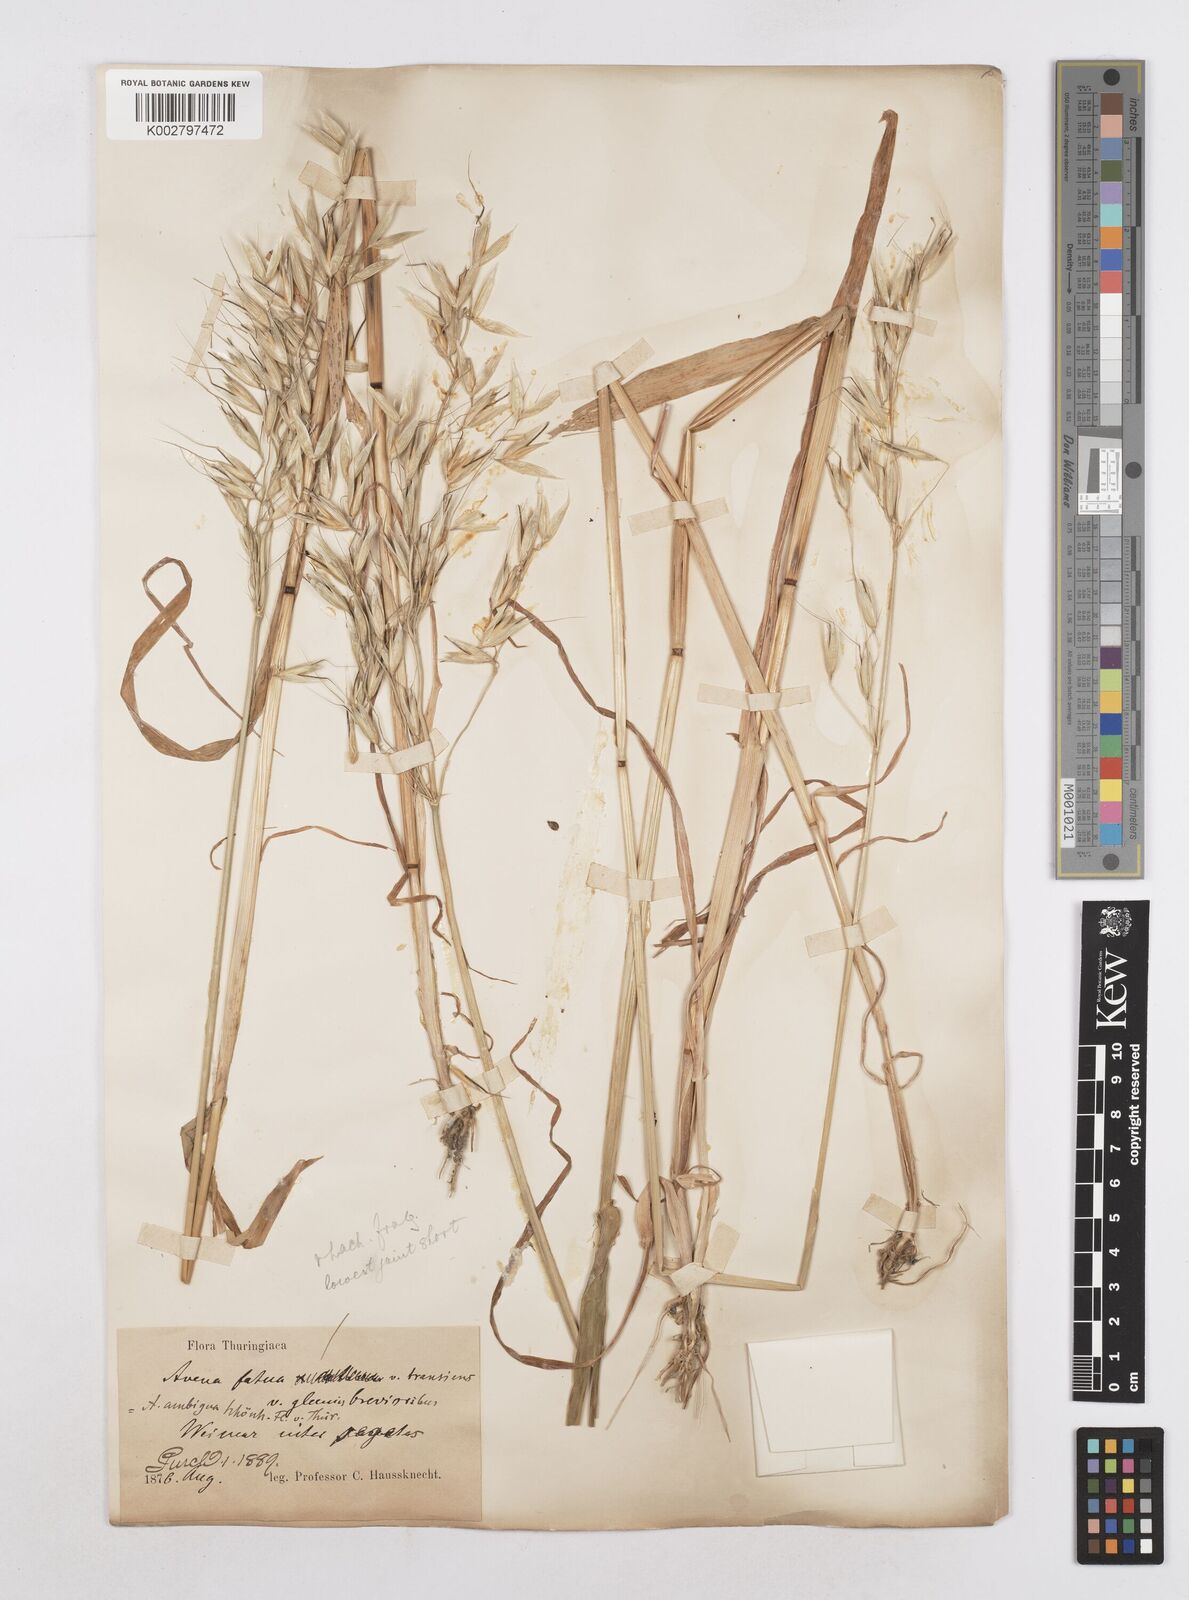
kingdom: Plantae
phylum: Tracheophyta
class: Liliopsida
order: Poales
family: Poaceae
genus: Avena
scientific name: Avena fatua
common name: Wild oat
